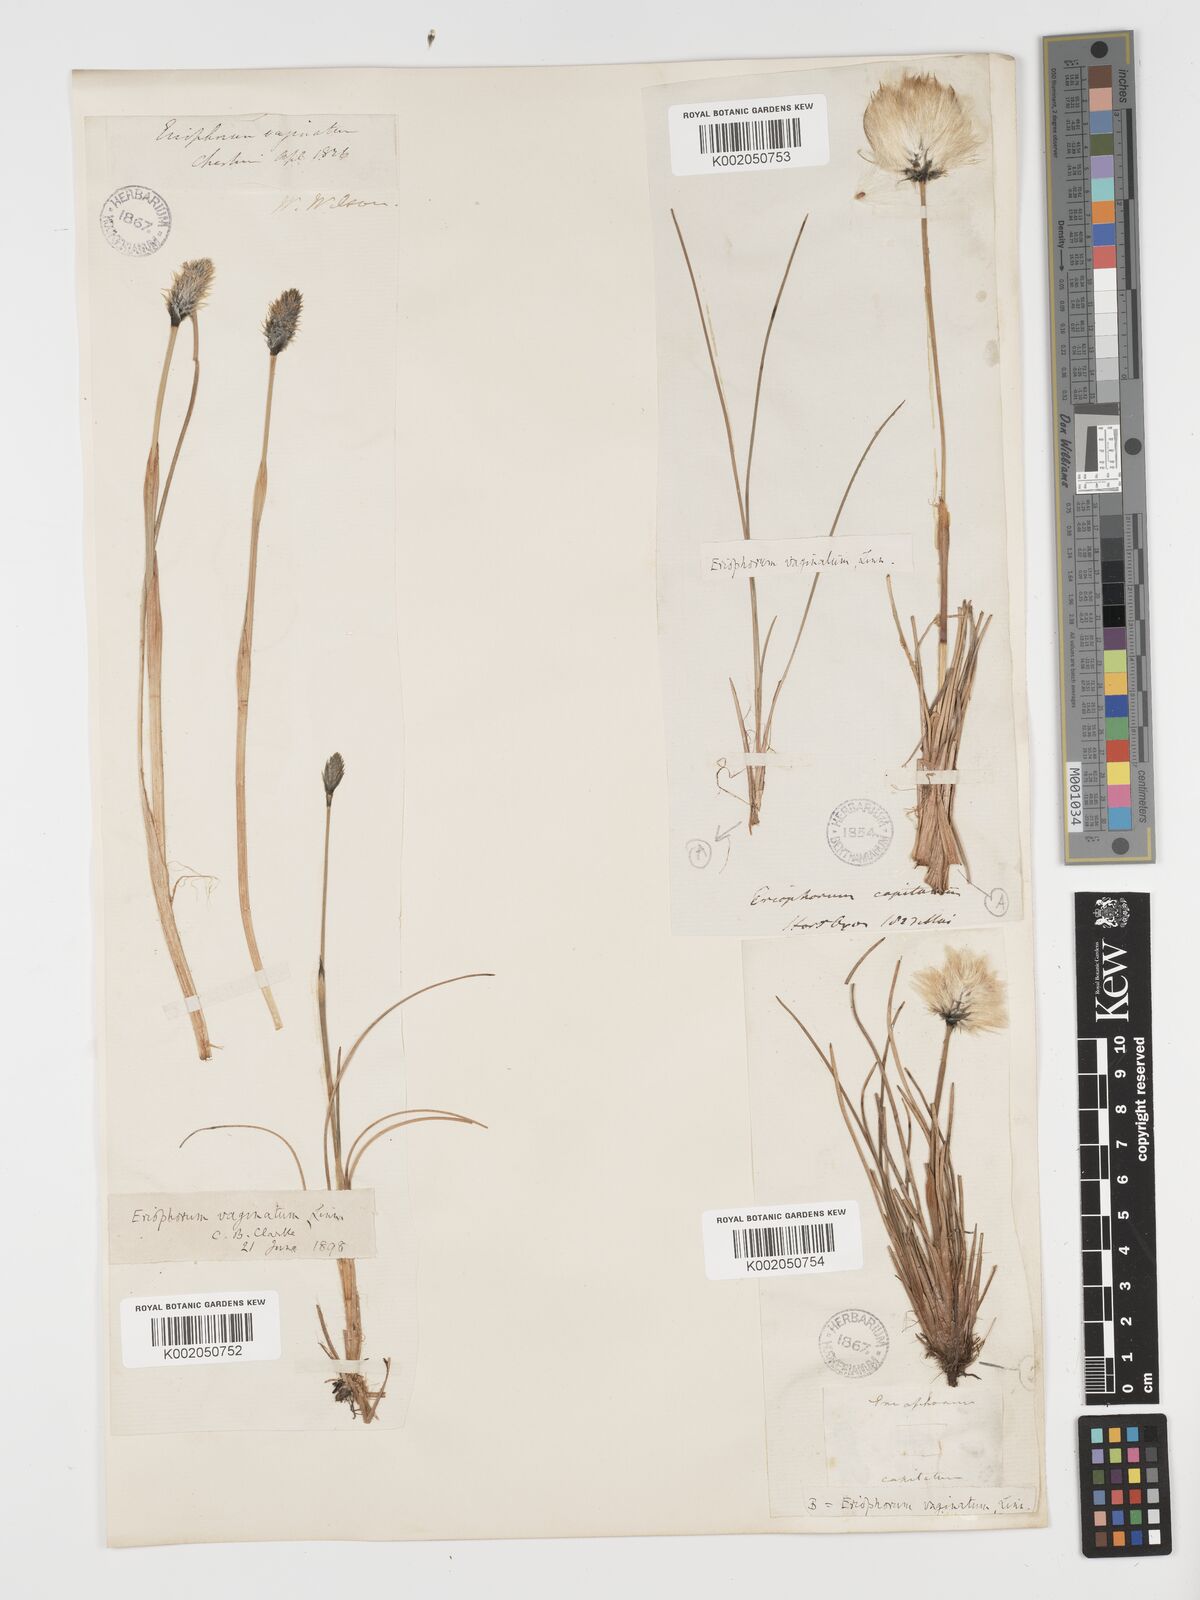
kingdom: Plantae
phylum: Tracheophyta
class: Liliopsida
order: Poales
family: Cyperaceae
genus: Eriophorum
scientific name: Eriophorum vaginatum
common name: Hare's-tail cottongrass
